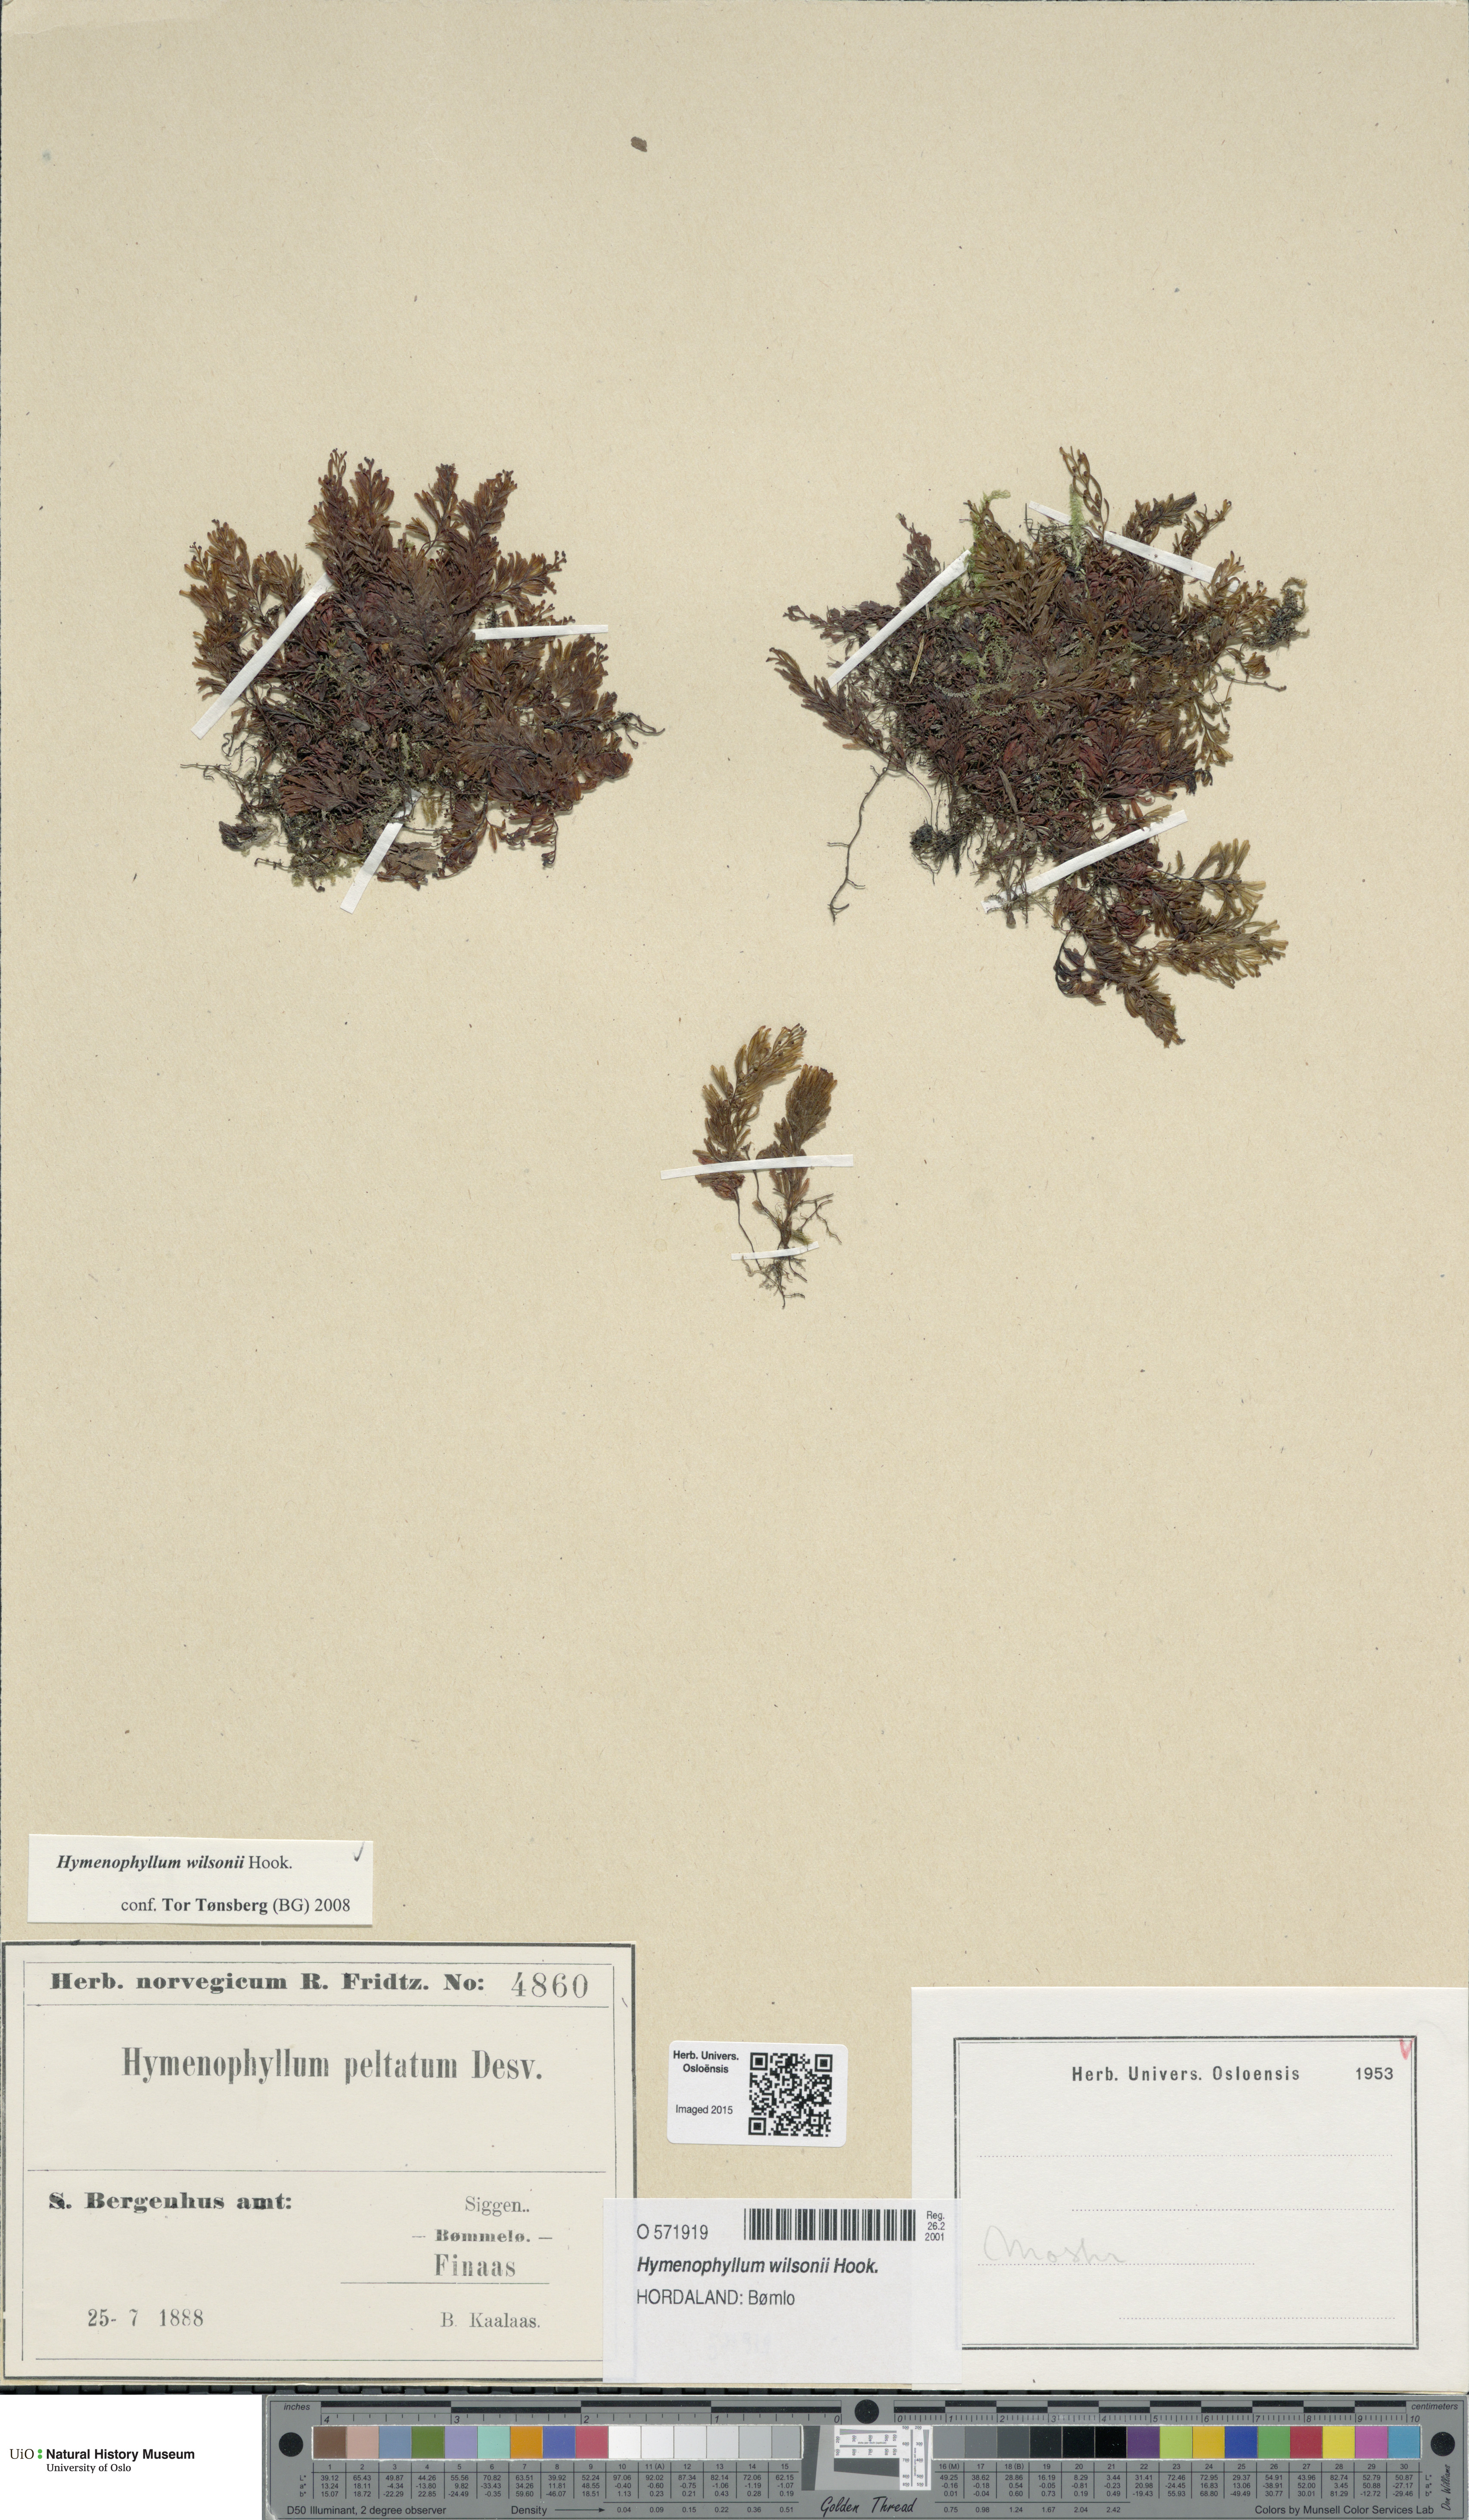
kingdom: Plantae
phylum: Tracheophyta
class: Polypodiopsida
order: Hymenophyllales
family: Hymenophyllaceae
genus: Hymenophyllum
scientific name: Hymenophyllum peltatum
